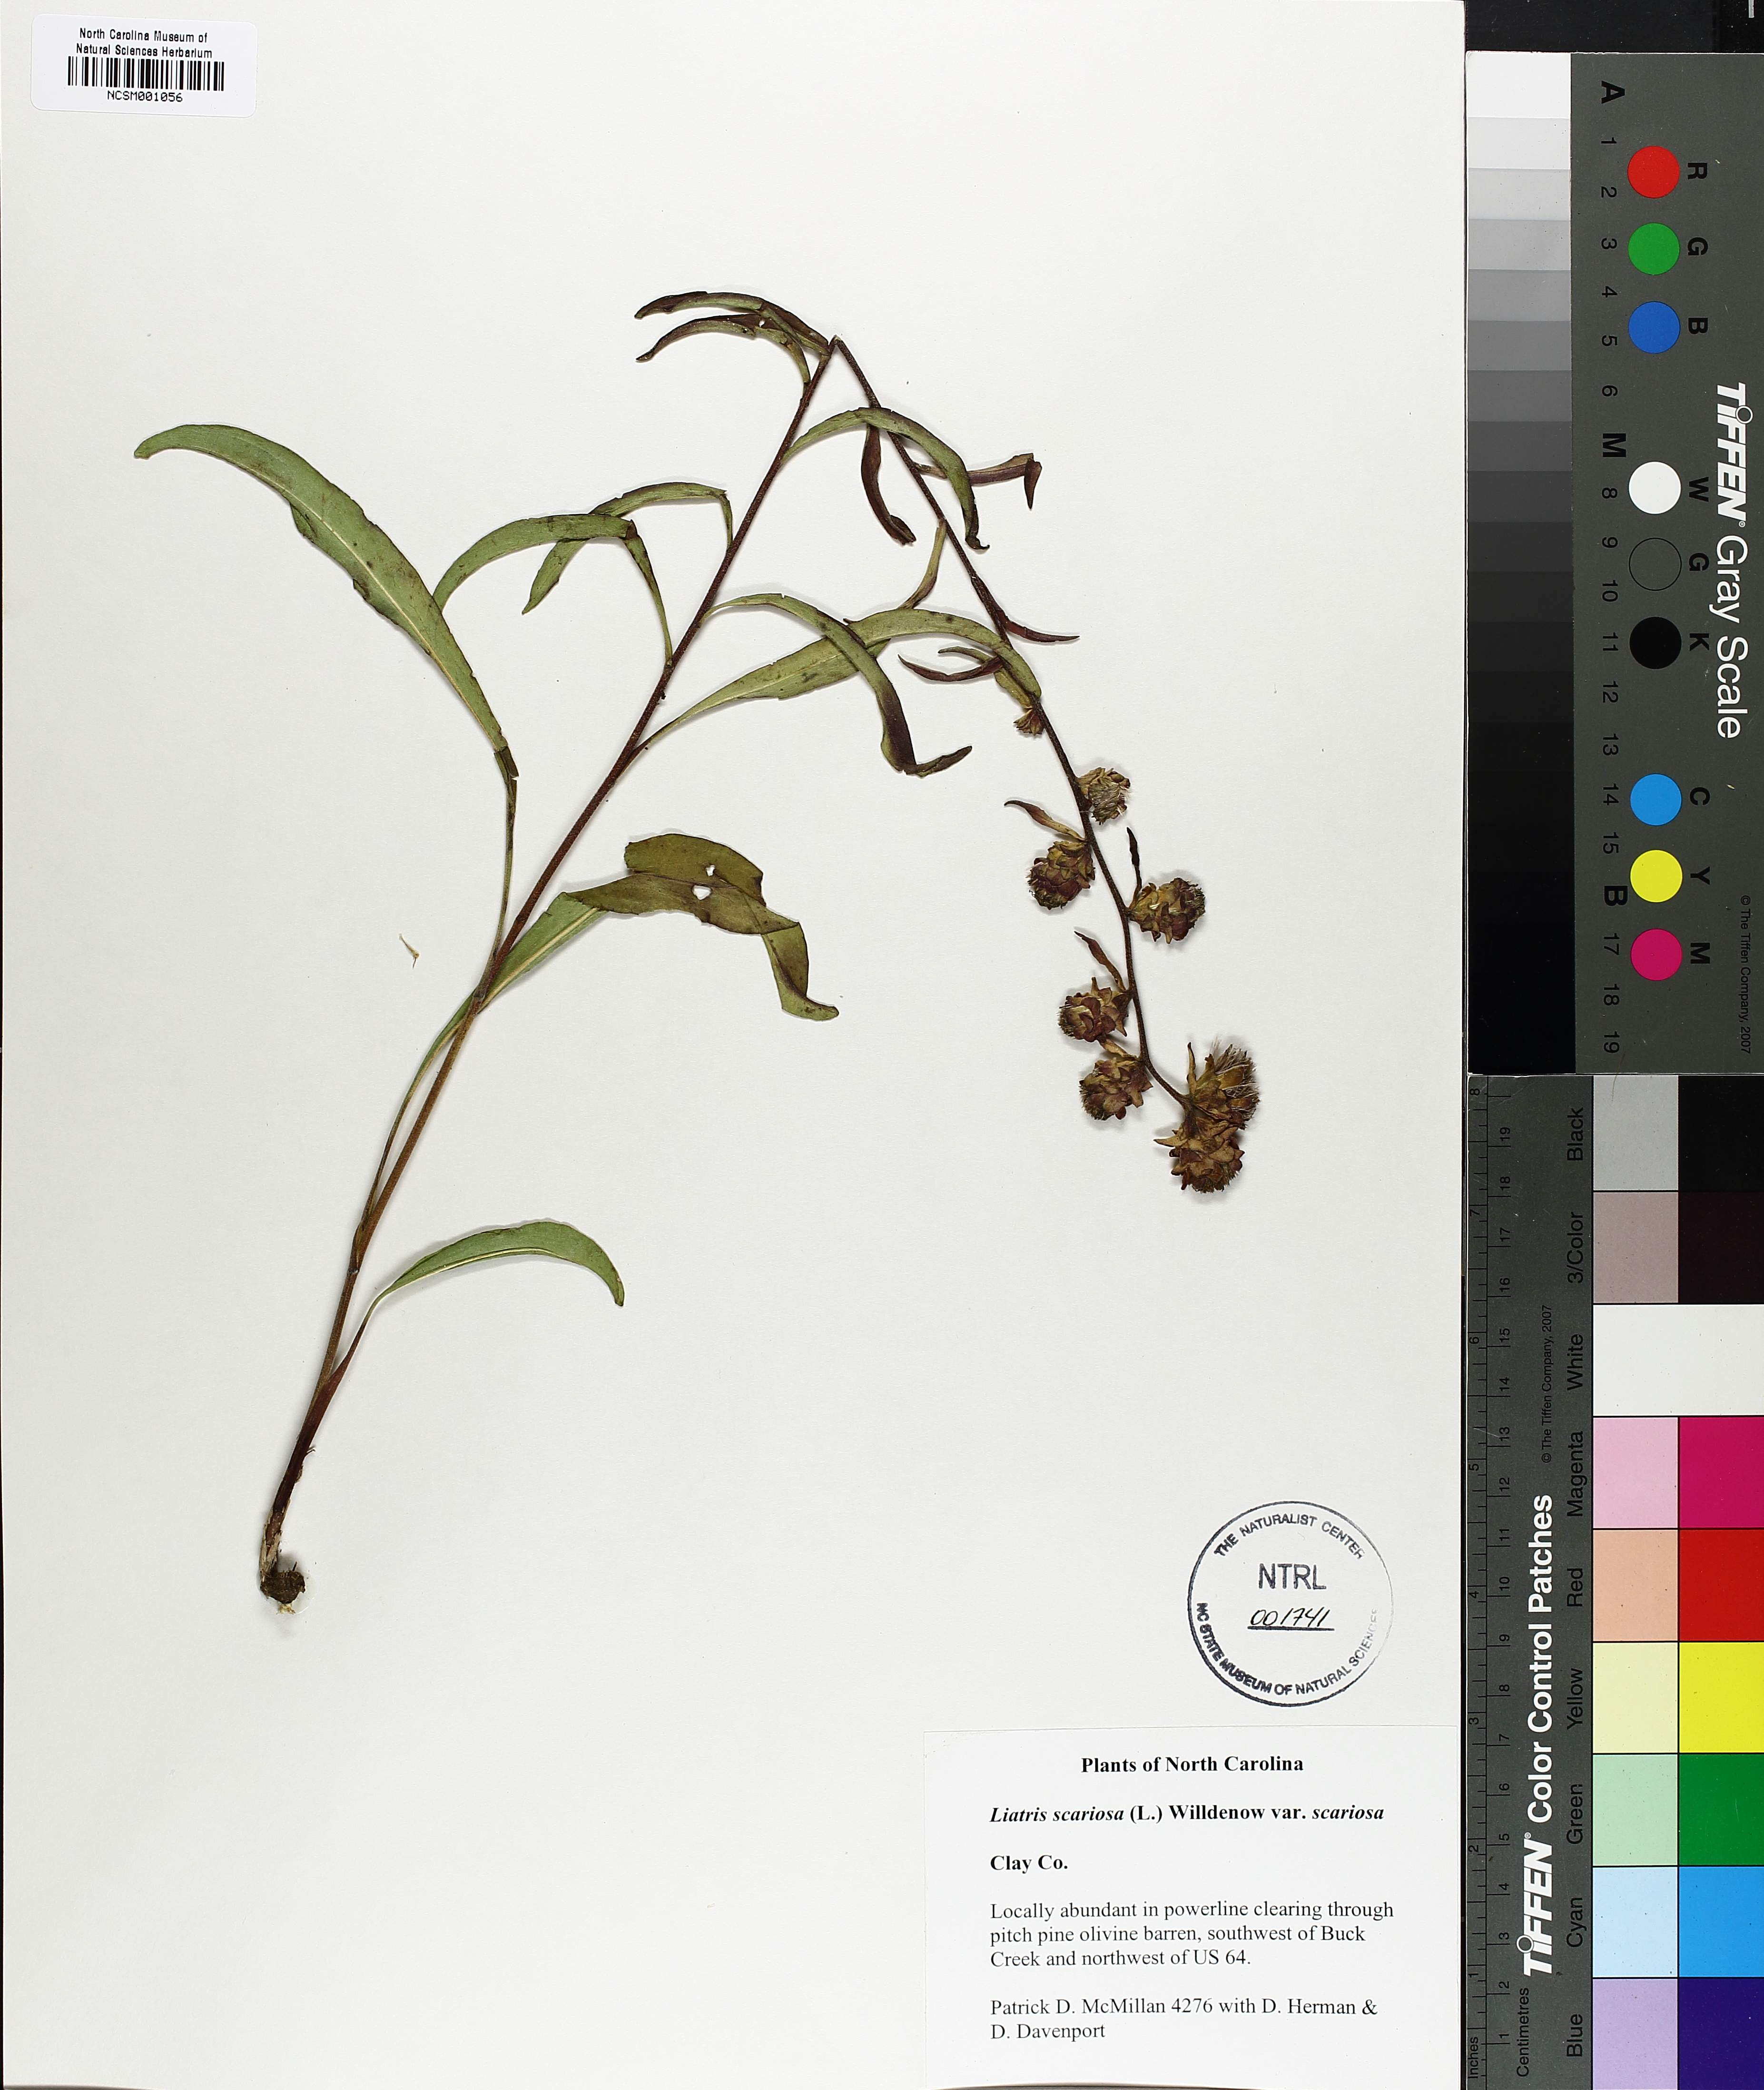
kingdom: Plantae
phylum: Tracheophyta
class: Magnoliopsida
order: Asterales
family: Asteraceae
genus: Liatris
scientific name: Liatris scariosa
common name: Northern gayfeather
